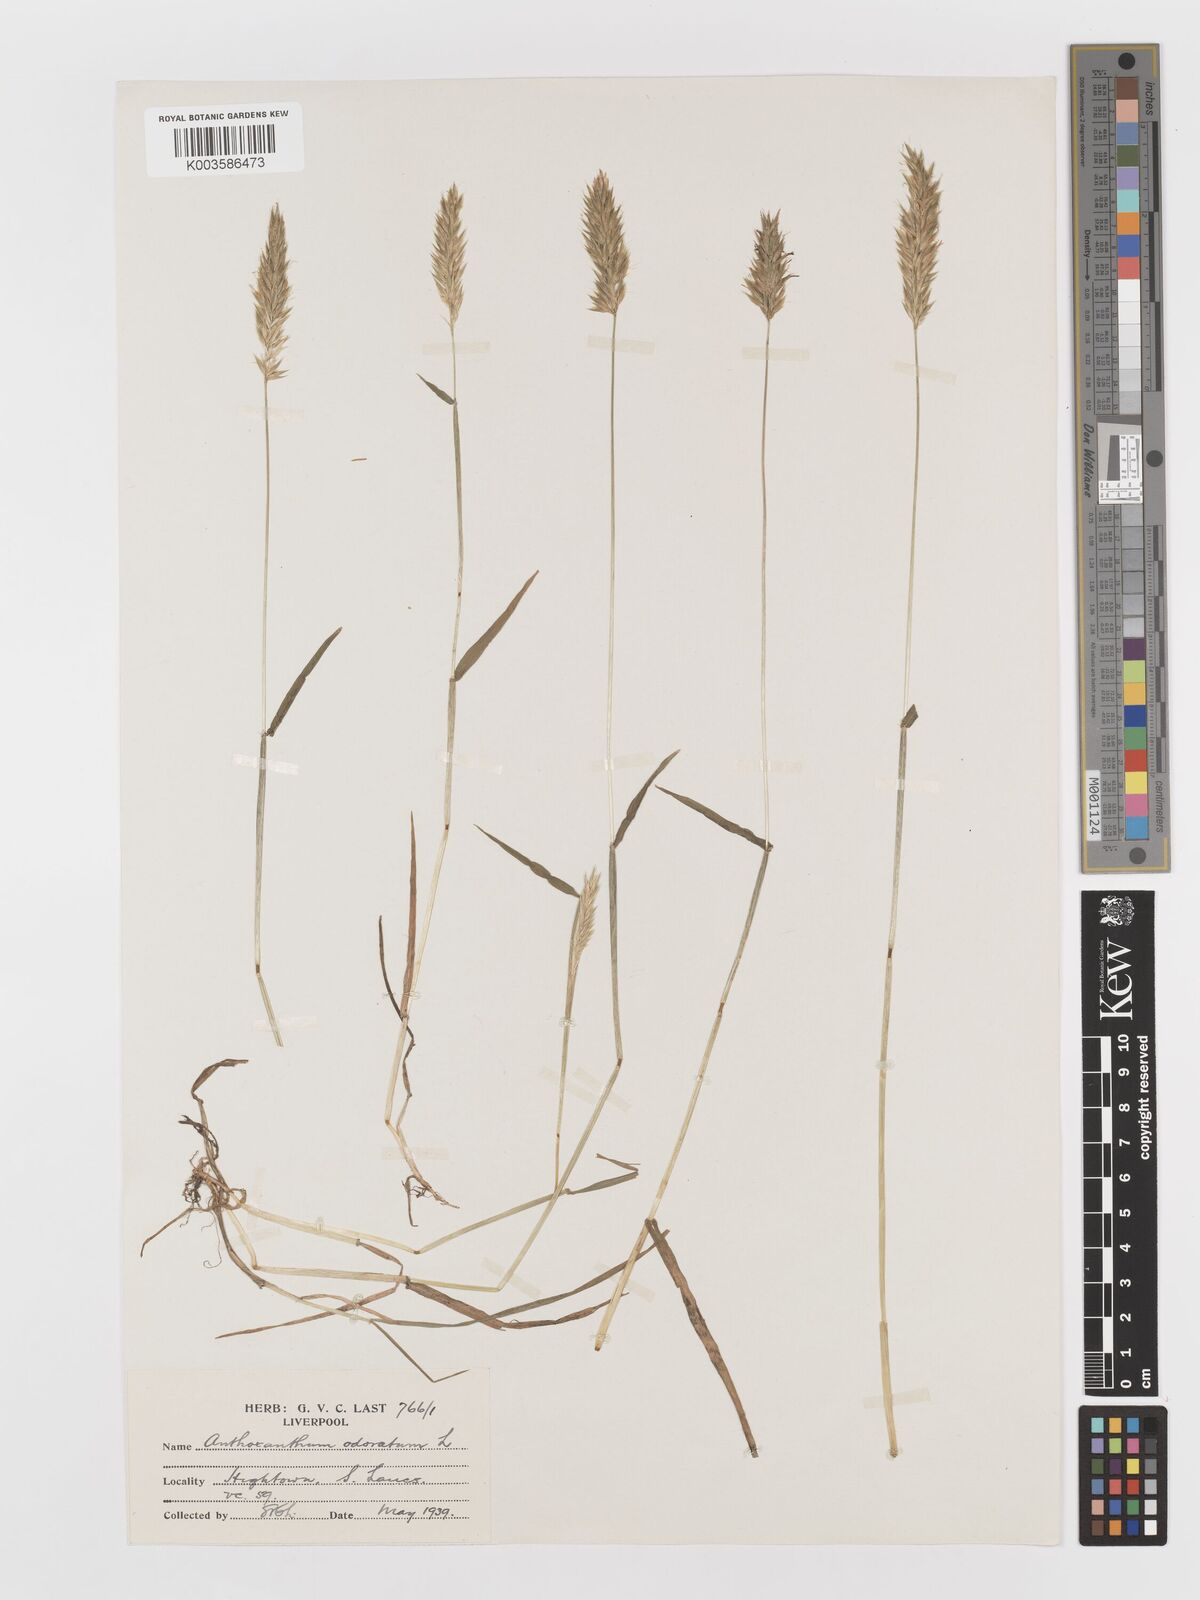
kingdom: Plantae
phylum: Tracheophyta
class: Liliopsida
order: Poales
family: Poaceae
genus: Anthoxanthum
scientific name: Anthoxanthum odoratum
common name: Sweet vernalgrass
